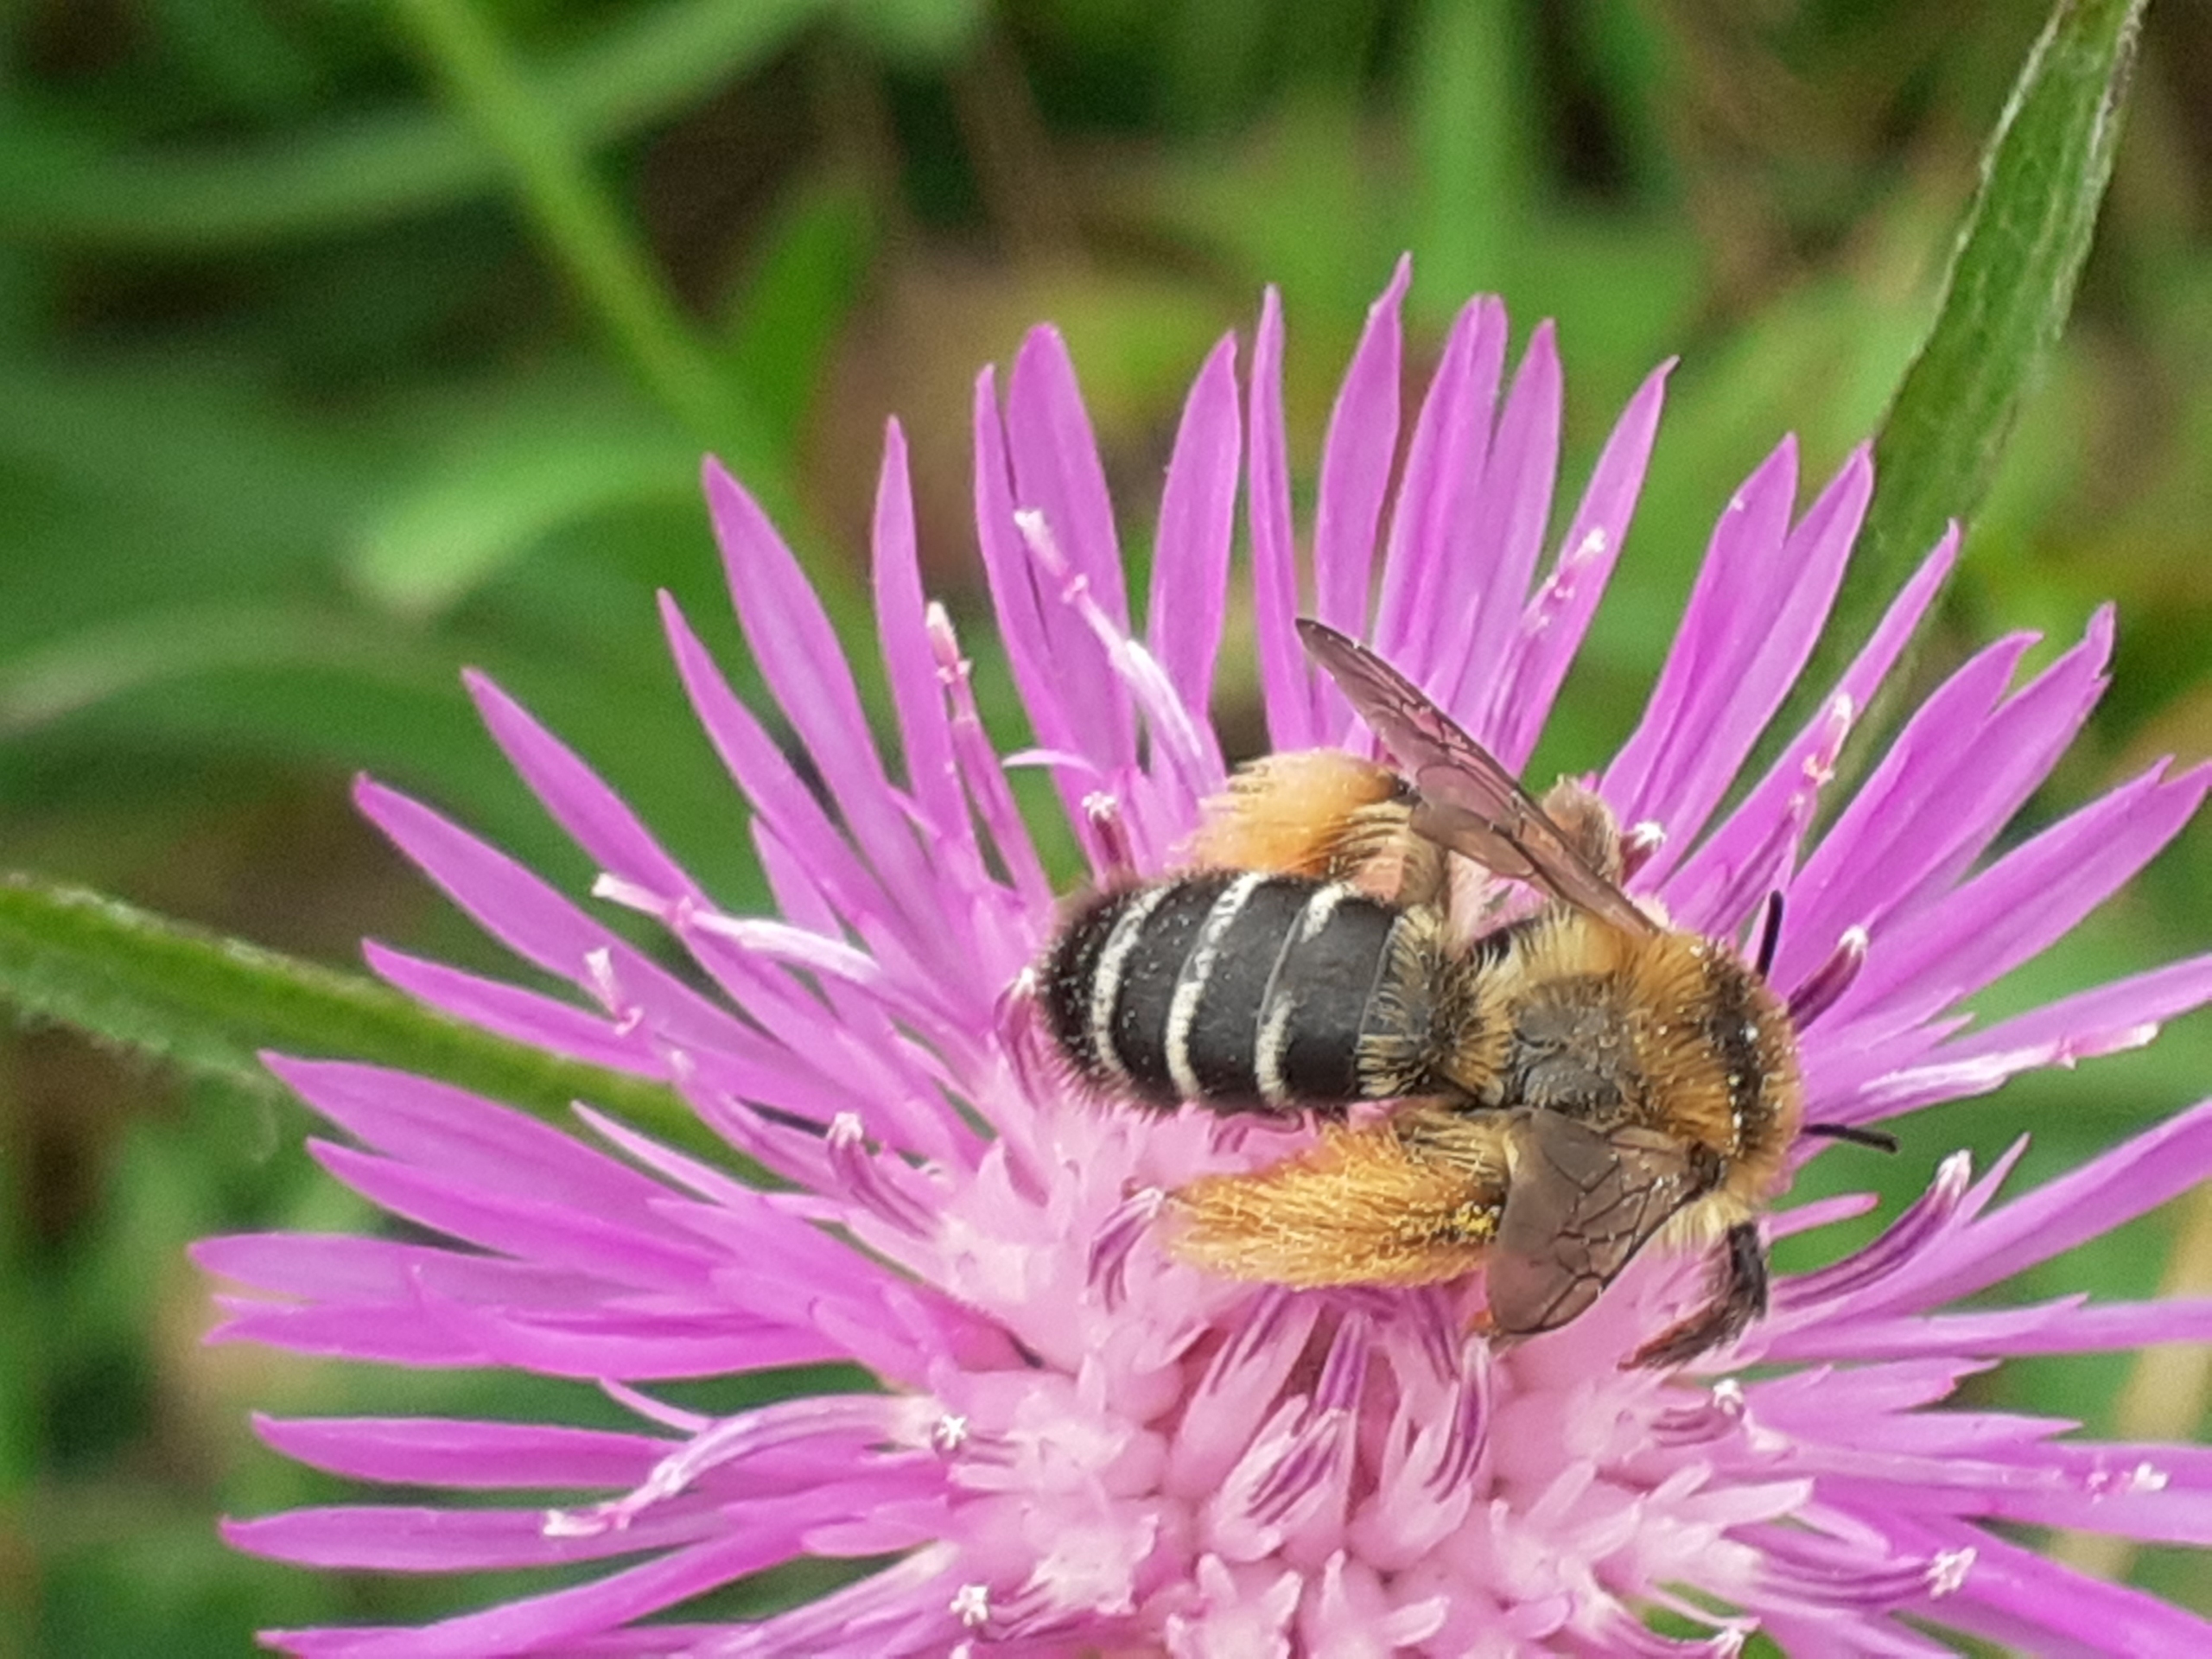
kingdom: Animalia
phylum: Arthropoda
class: Insecta
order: Hymenoptera
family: Melittidae
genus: Dasypoda
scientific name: Dasypoda hirtipes
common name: Pragtbuksebi
